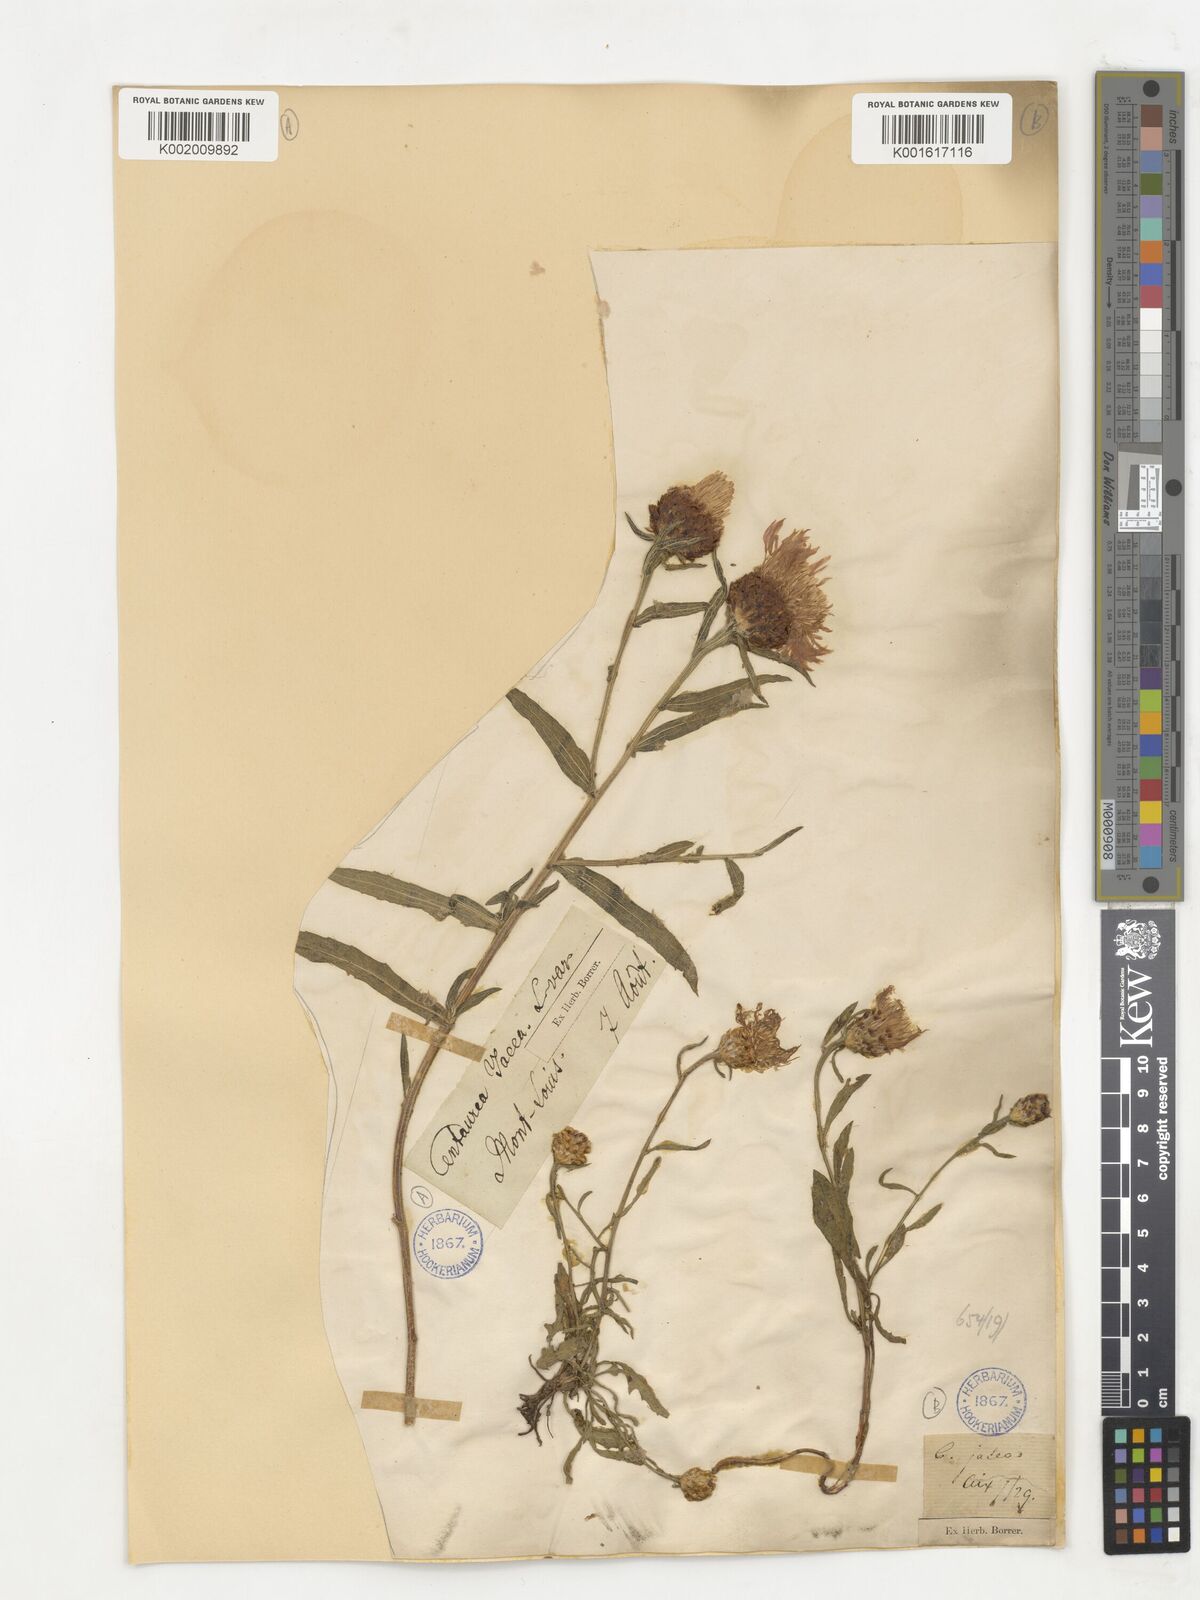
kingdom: Plantae
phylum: Tracheophyta
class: Magnoliopsida
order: Asterales
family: Asteraceae
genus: Centaurea
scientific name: Centaurea jacea
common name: Brown knapweed
